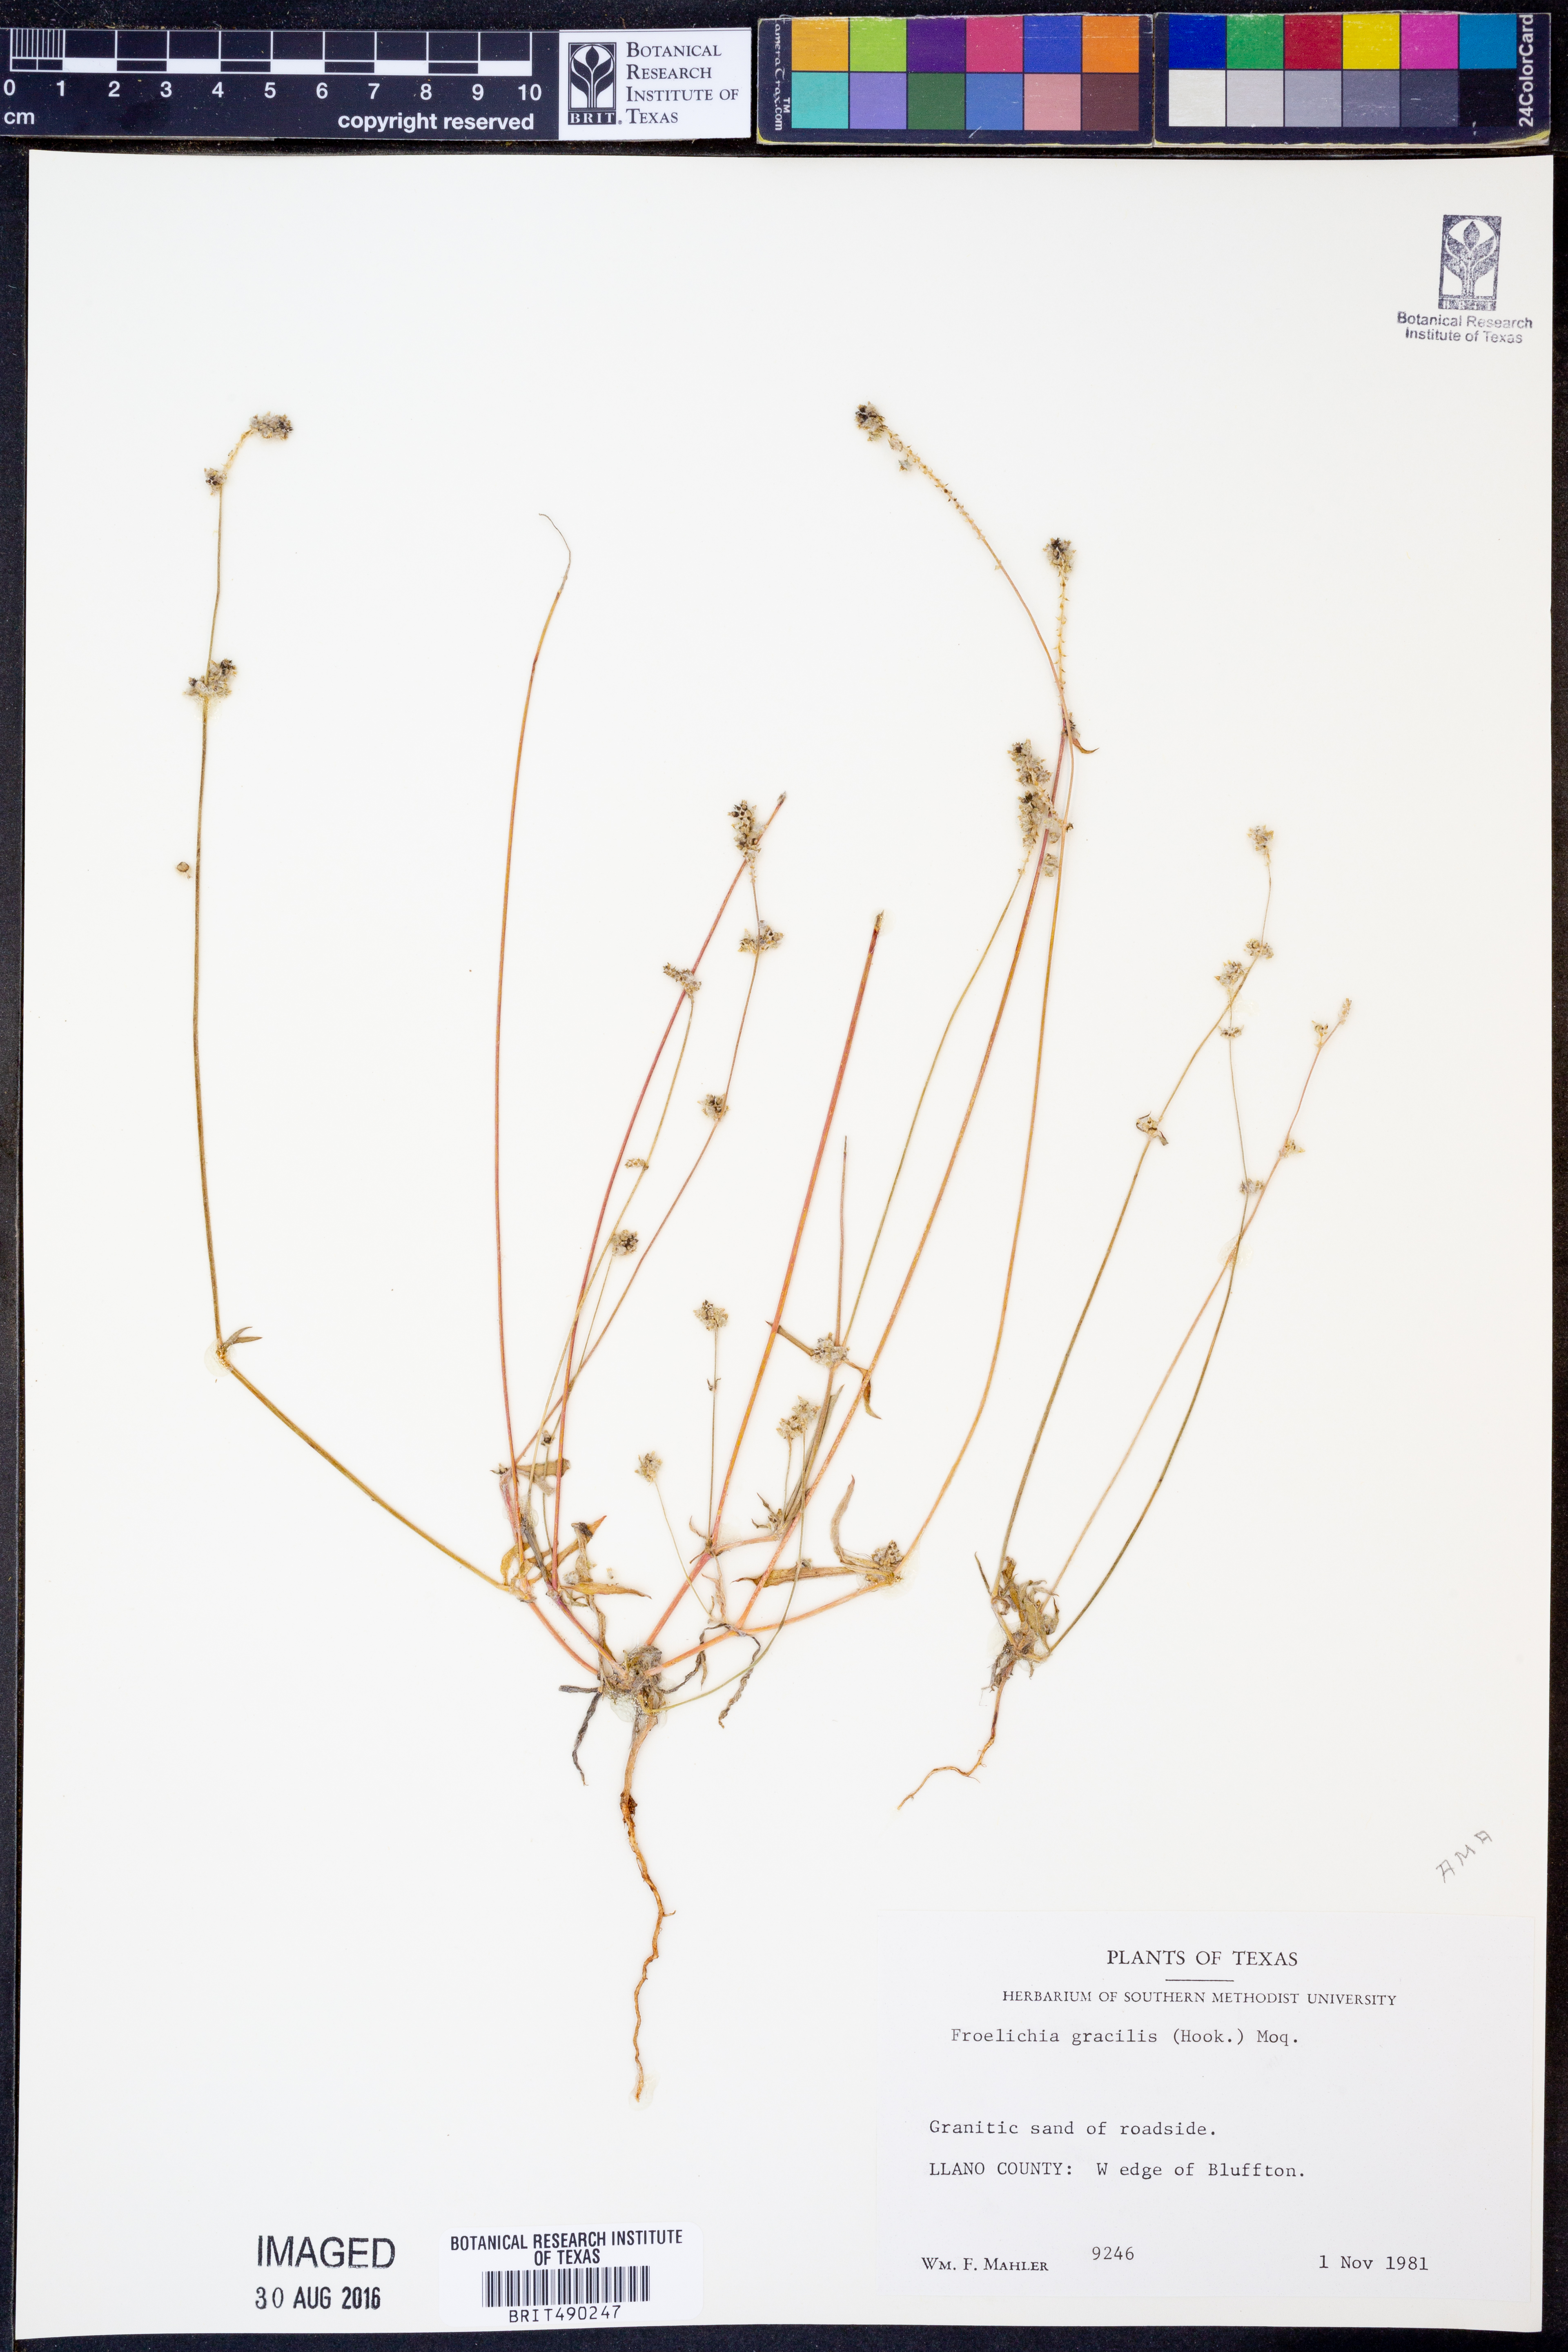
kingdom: Plantae
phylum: Tracheophyta
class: Magnoliopsida
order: Caryophyllales
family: Amaranthaceae
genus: Froelichia
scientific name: Froelichia gracilis
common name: Slender cottonweed
